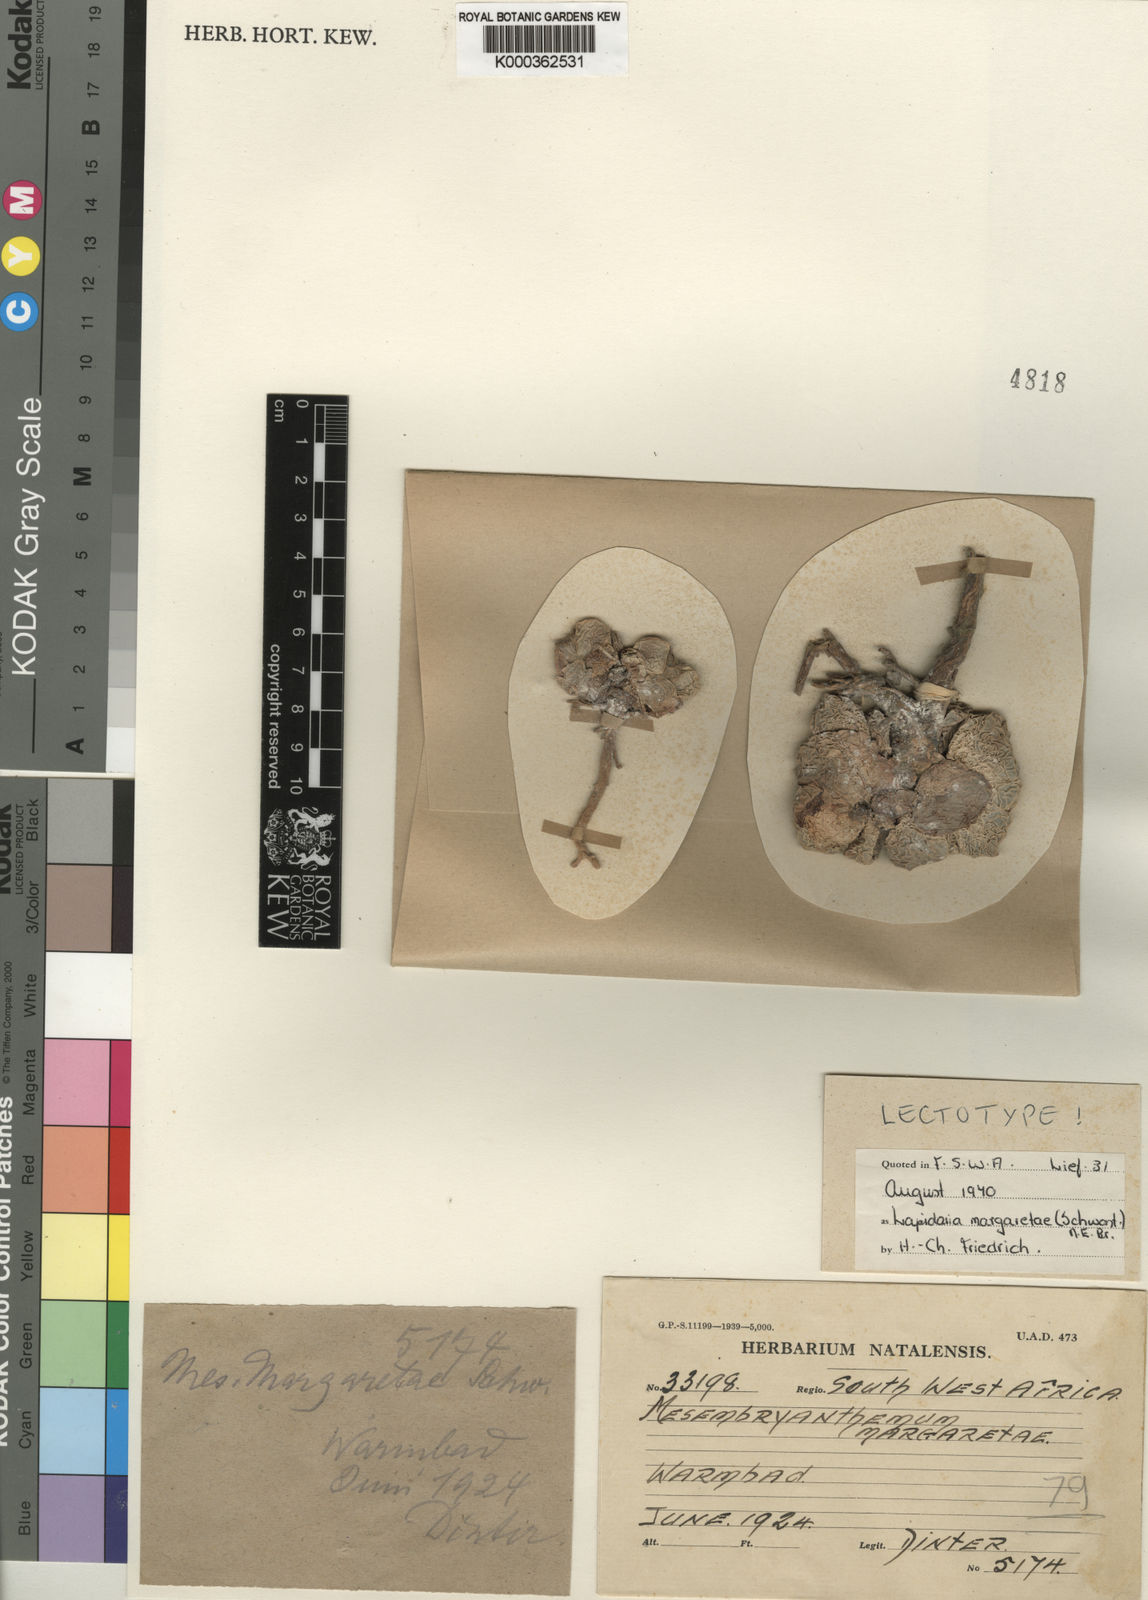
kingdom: Plantae
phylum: Tracheophyta
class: Magnoliopsida
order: Caryophyllales
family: Aizoaceae
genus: Lapidaria
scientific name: Lapidaria margaretae
